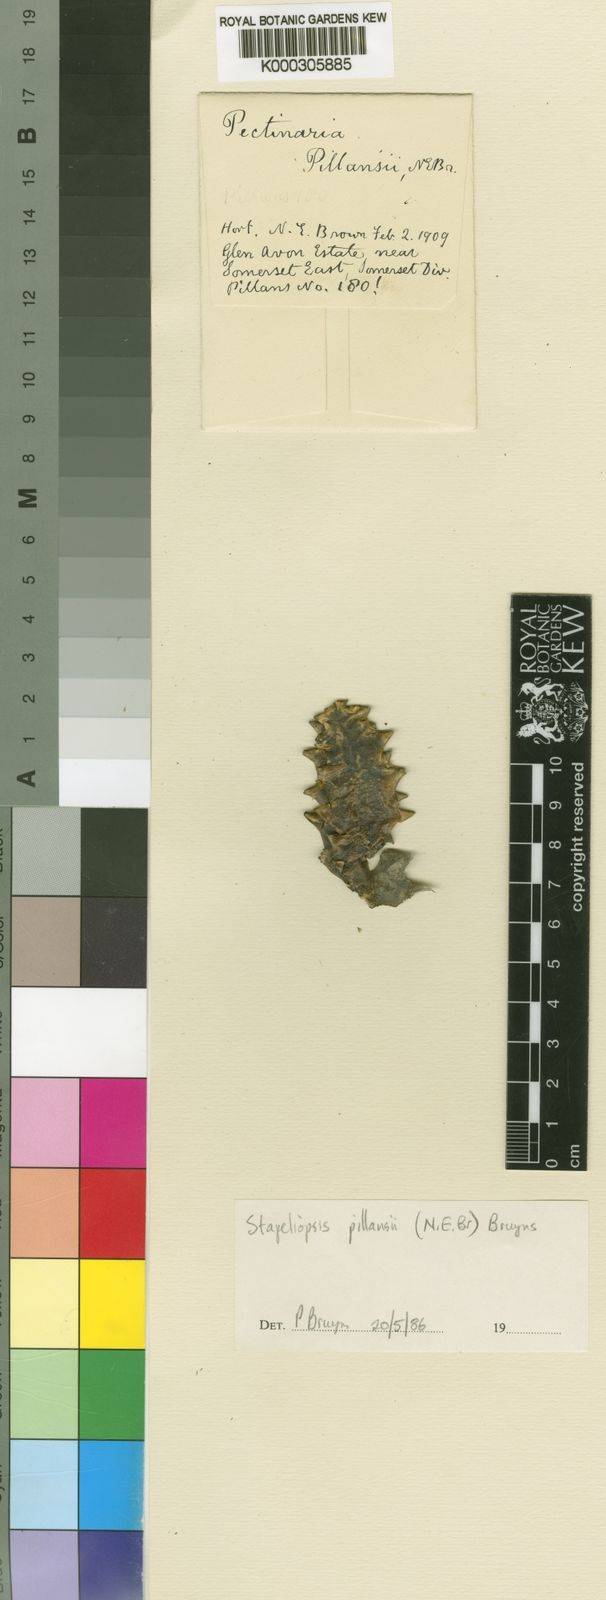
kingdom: Plantae
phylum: Tracheophyta
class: Magnoliopsida
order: Gentianales
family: Apocynaceae
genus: Ceropegia
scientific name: Ceropegia pillansioides
